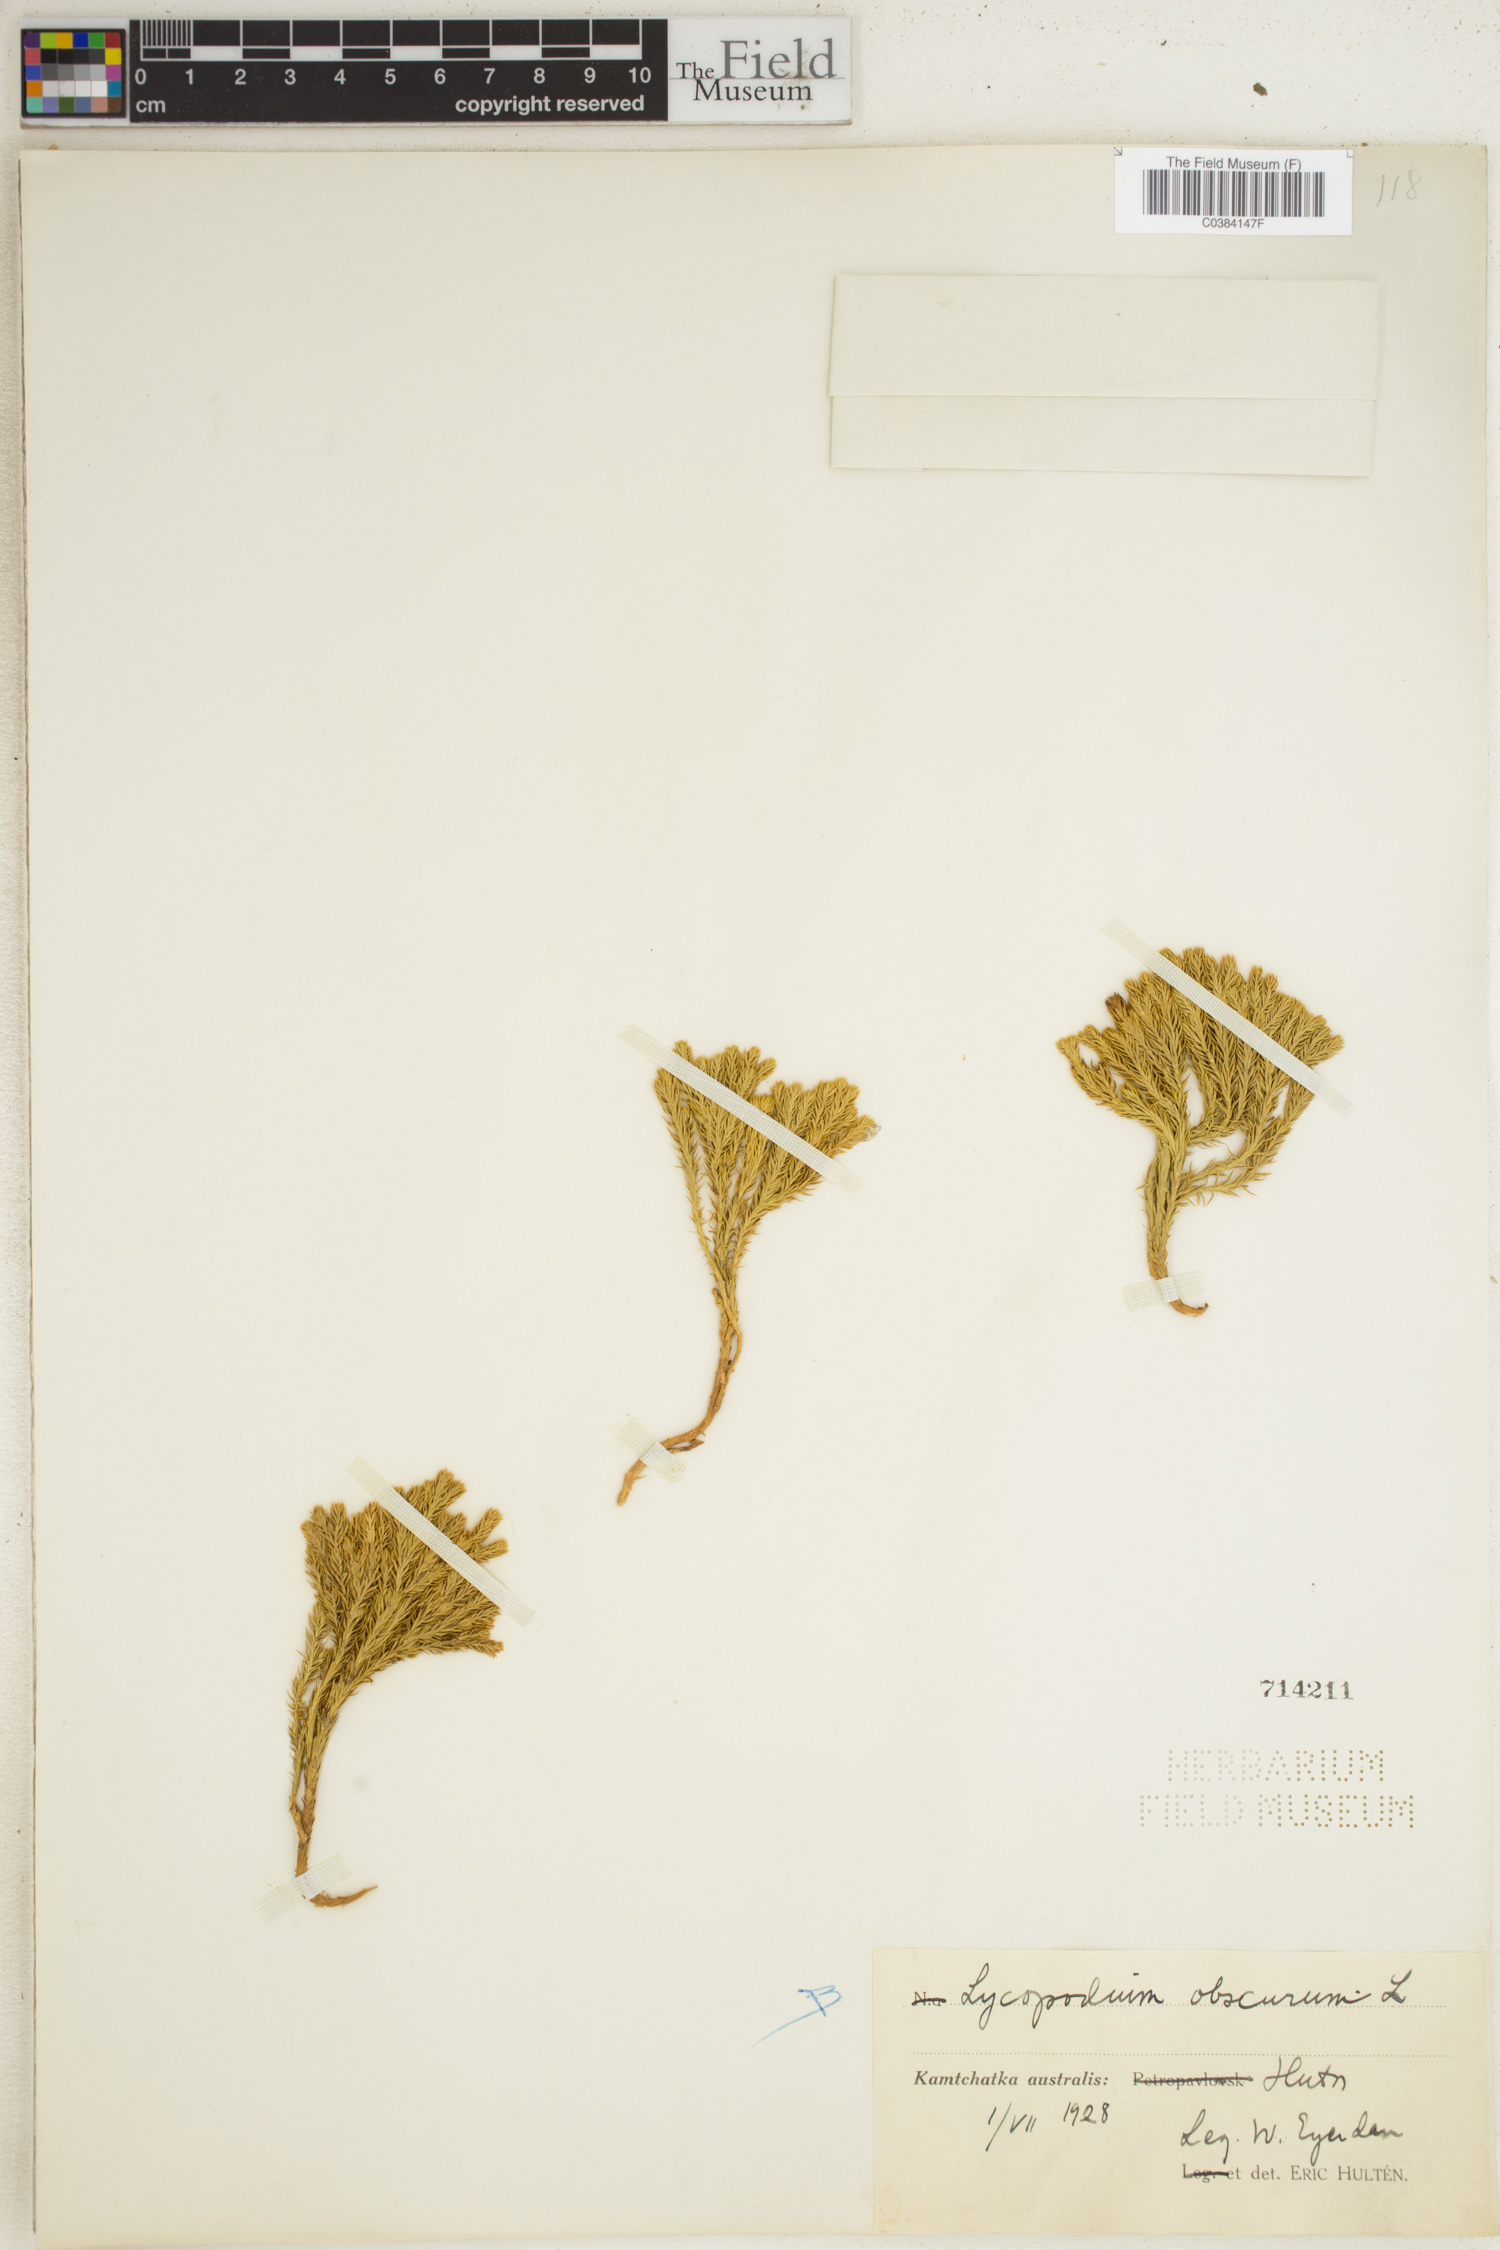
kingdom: Plantae
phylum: Tracheophyta
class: Lycopodiopsida
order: Lycopodiales
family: Lycopodiaceae
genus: Dendrolycopodium
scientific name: Dendrolycopodium obscurum
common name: Common ground-pine
